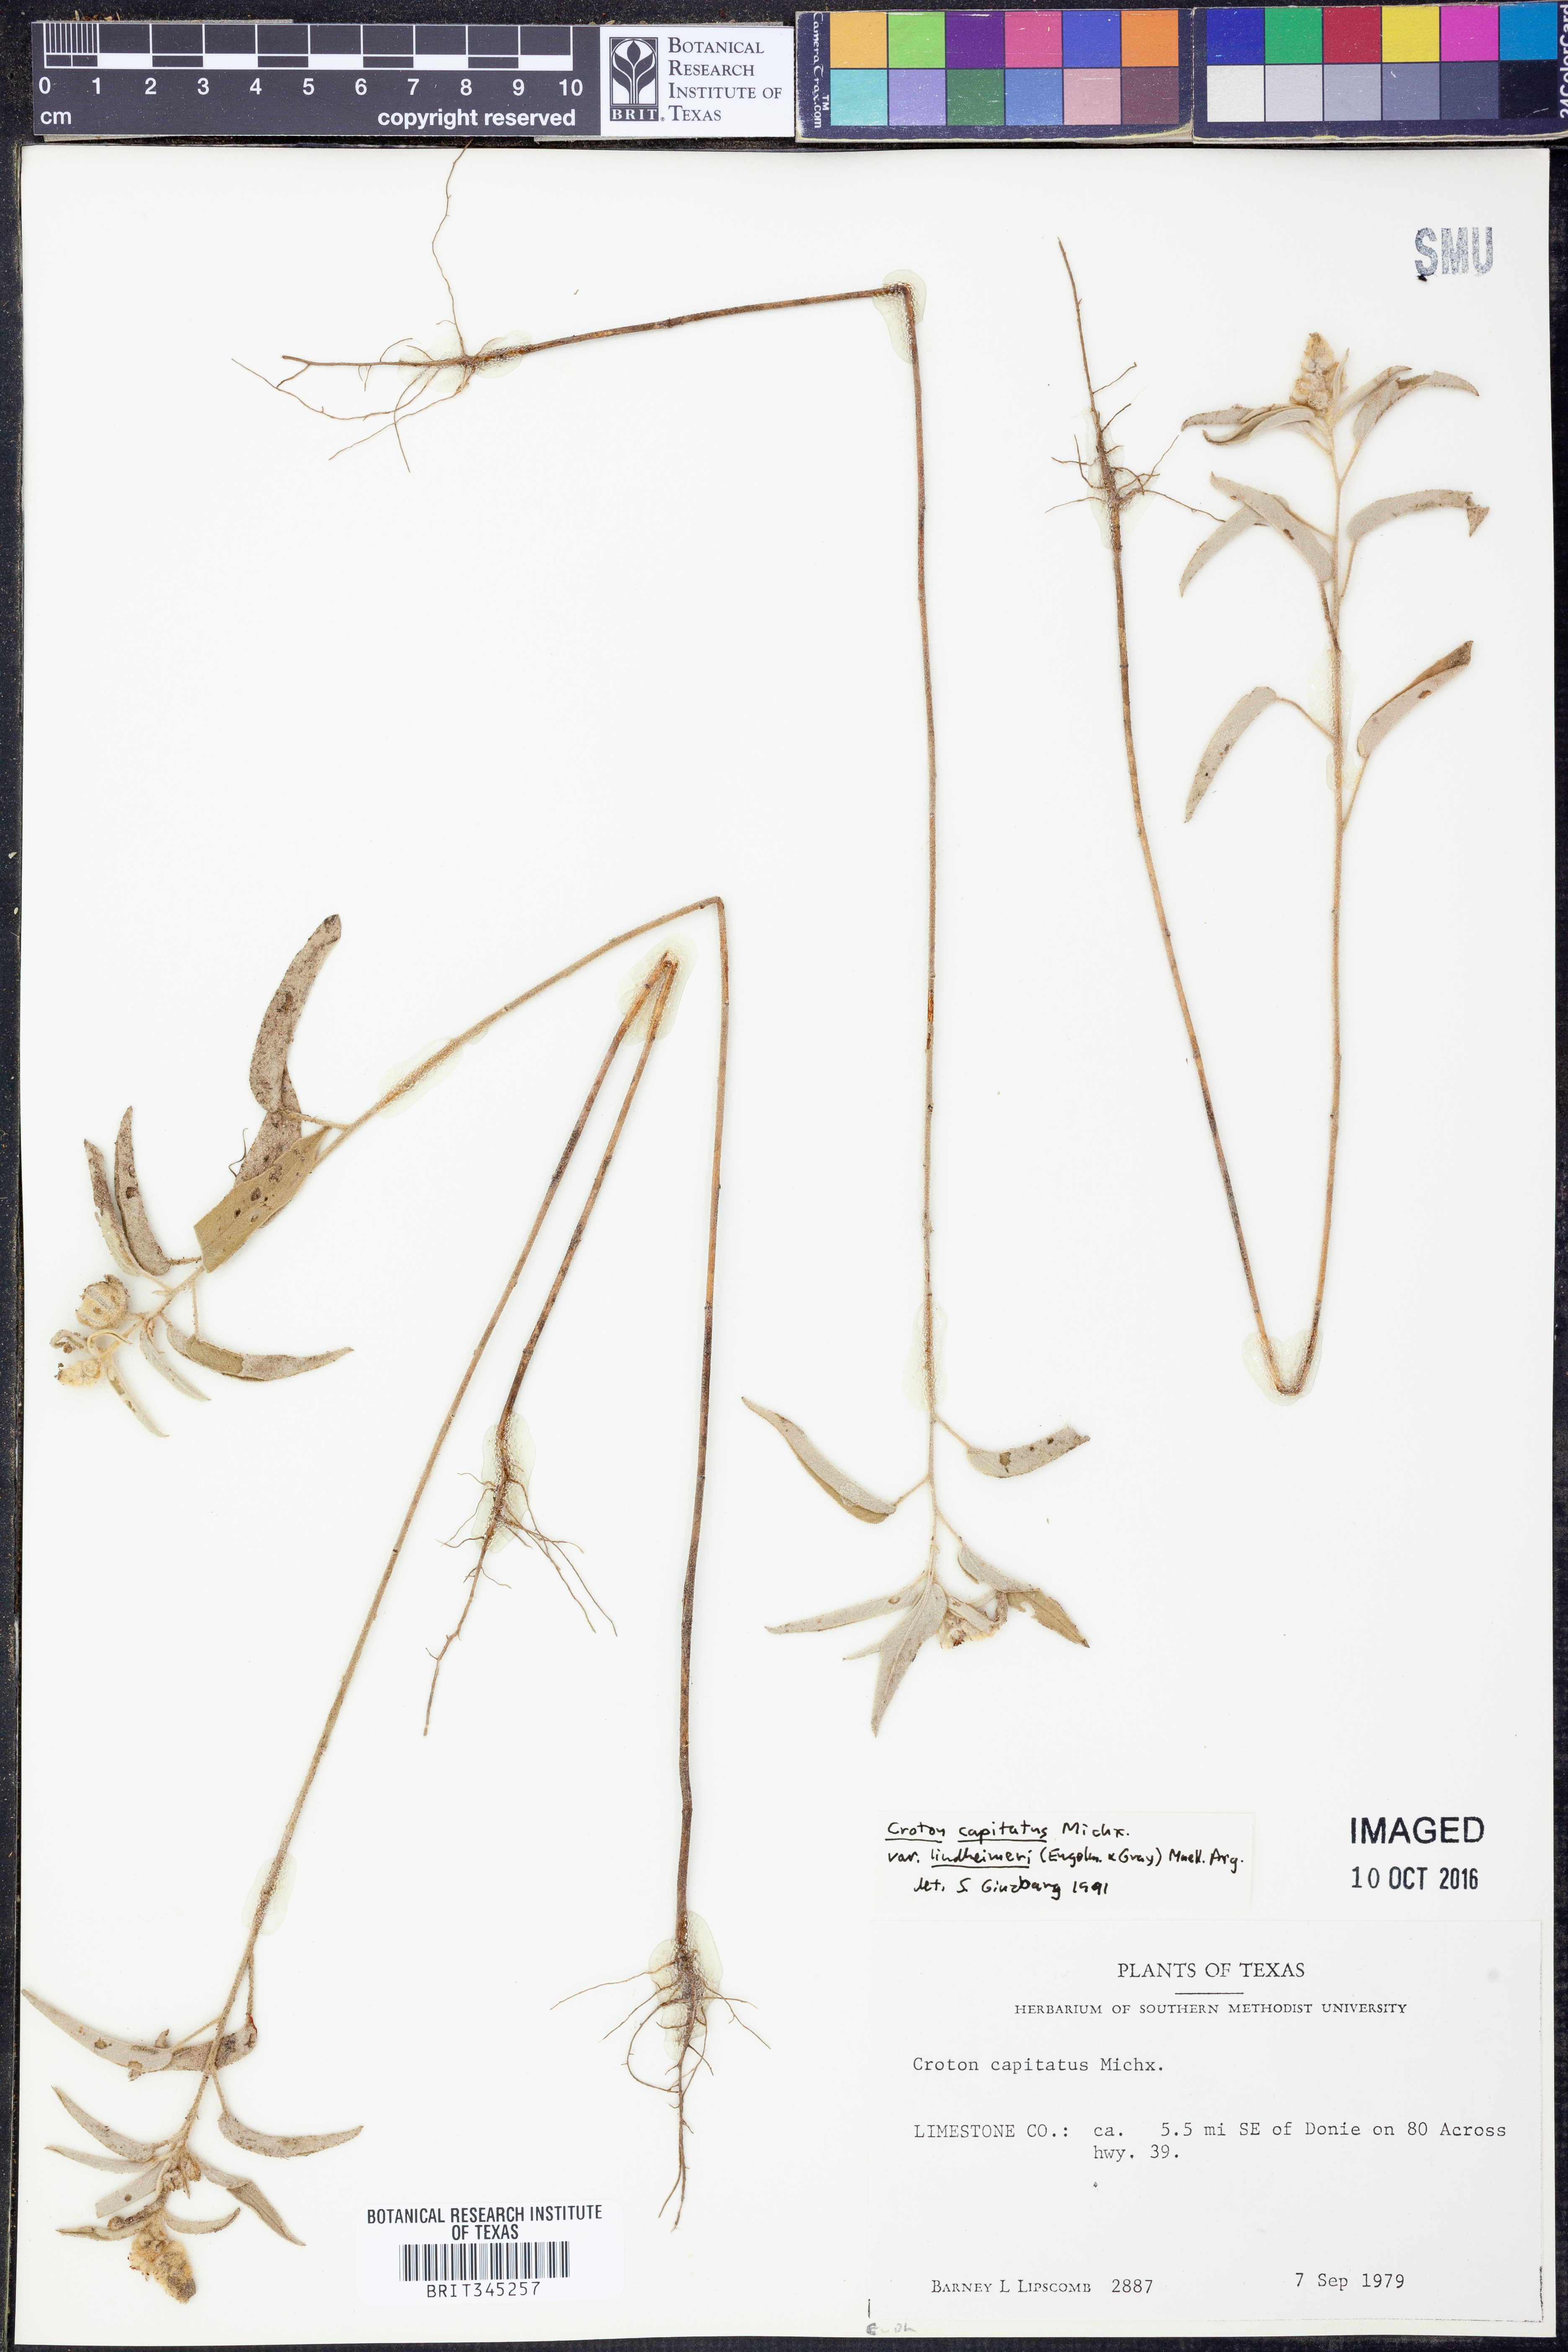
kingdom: Plantae
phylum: Tracheophyta
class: Magnoliopsida
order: Malpighiales
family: Euphorbiaceae
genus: Croton
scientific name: Croton lindheimeri
